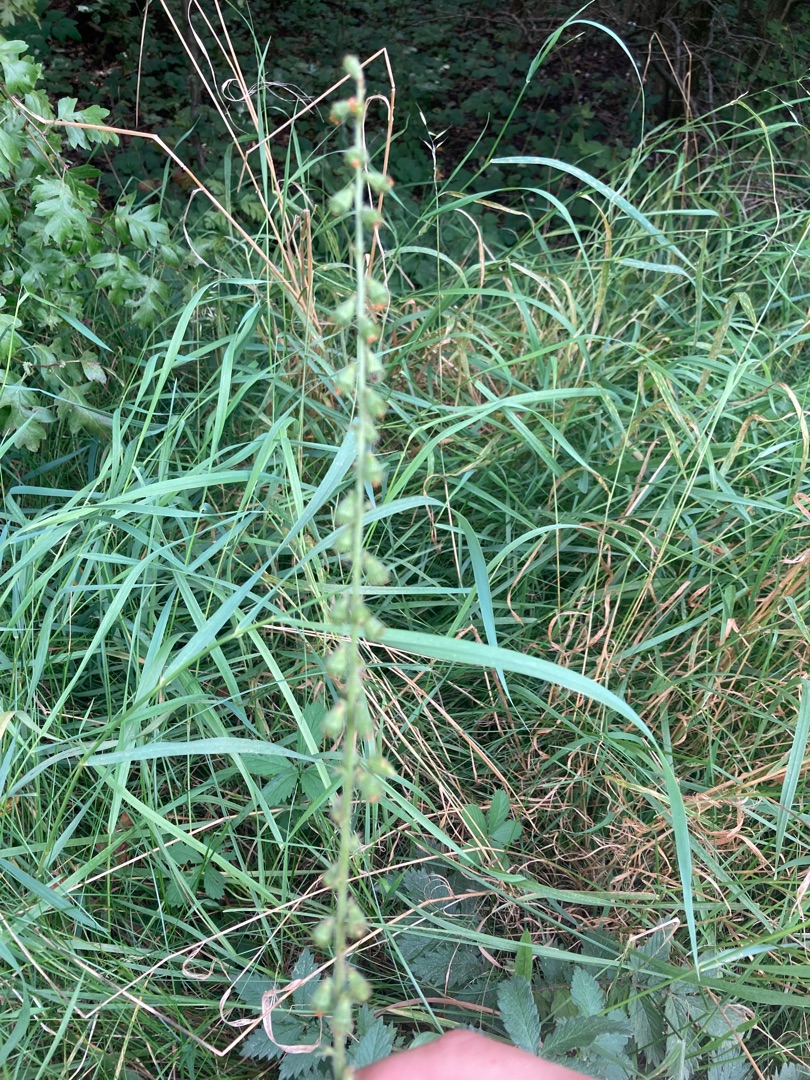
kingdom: Plantae
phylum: Tracheophyta
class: Magnoliopsida
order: Rosales
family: Rosaceae
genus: Agrimonia
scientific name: Agrimonia eupatoria
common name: Almindelig agermåne
